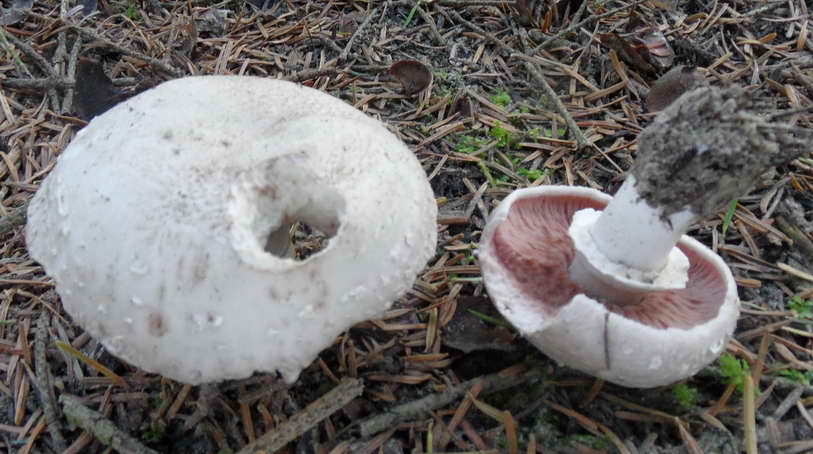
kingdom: Fungi
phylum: Basidiomycota
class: Agaricomycetes
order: Agaricales
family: Agaricaceae
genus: Agaricus
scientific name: Agaricus subfloccosus
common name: randskællet champignon
